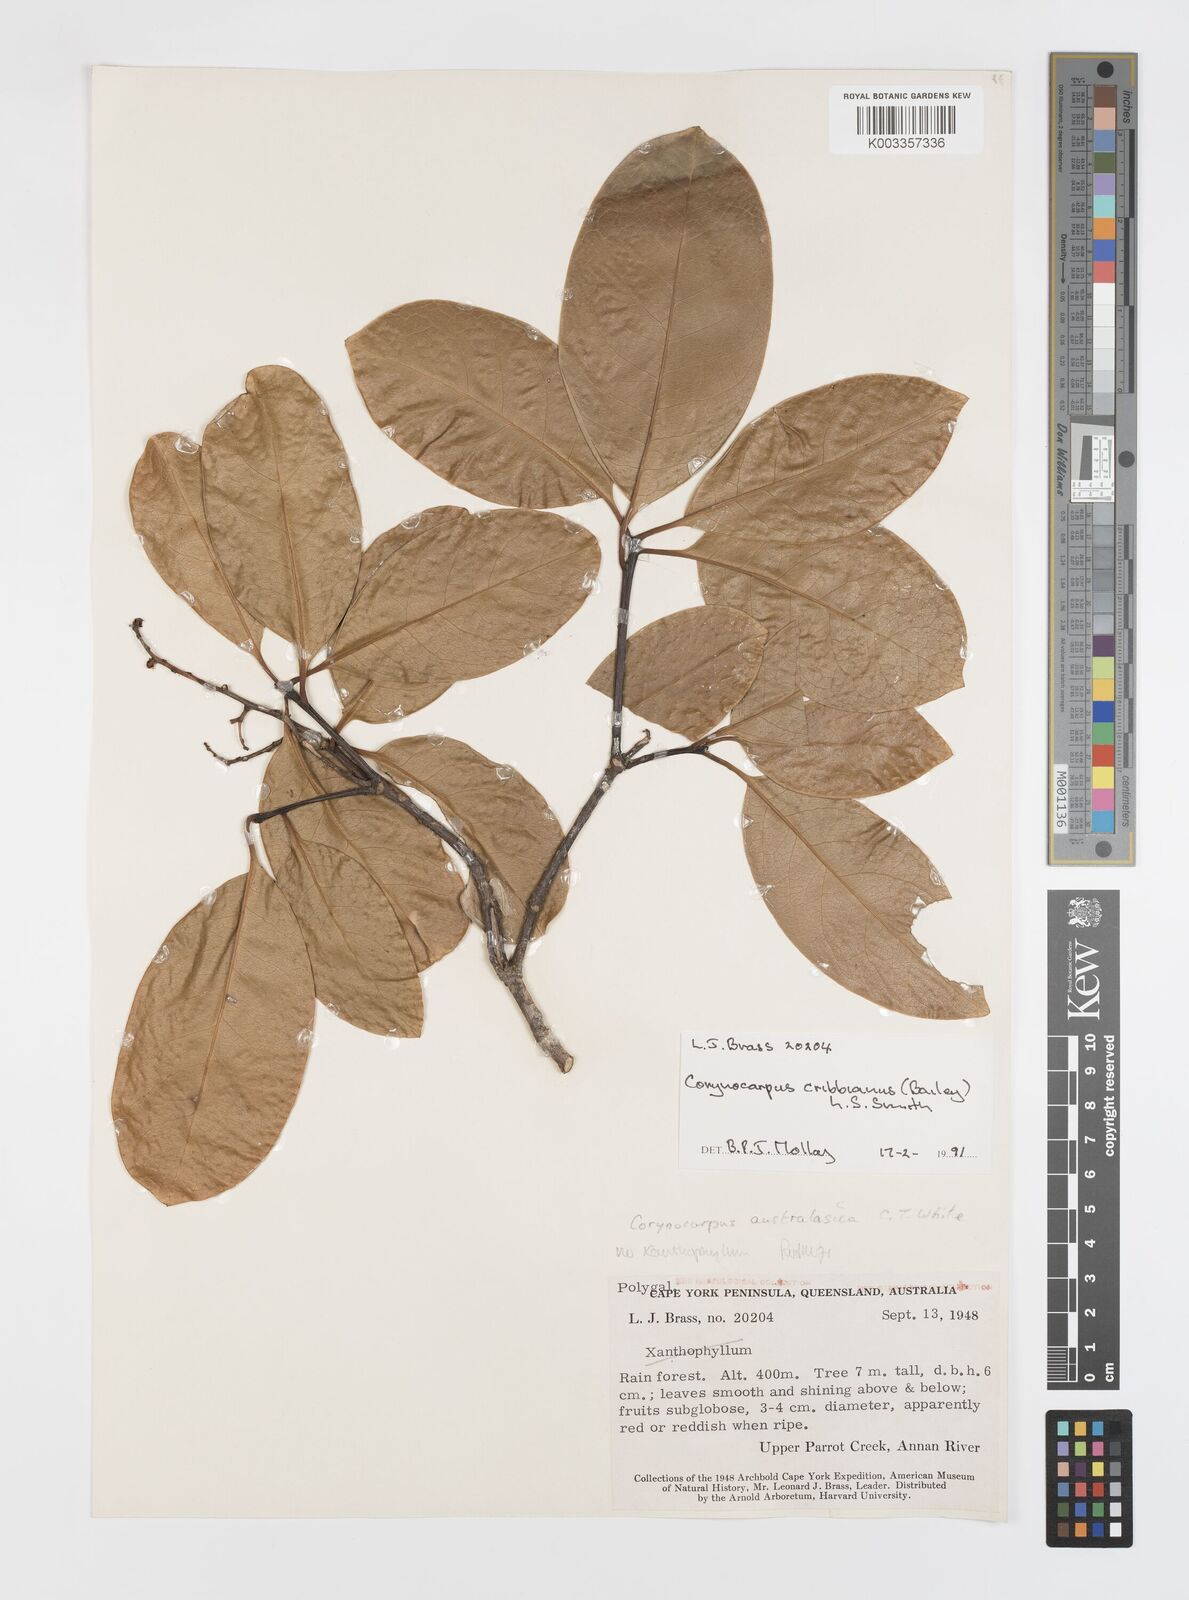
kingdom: Plantae
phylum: Tracheophyta
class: Magnoliopsida
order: Cucurbitales
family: Corynocarpaceae
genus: Corynocarpus
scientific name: Corynocarpus cribbianus
